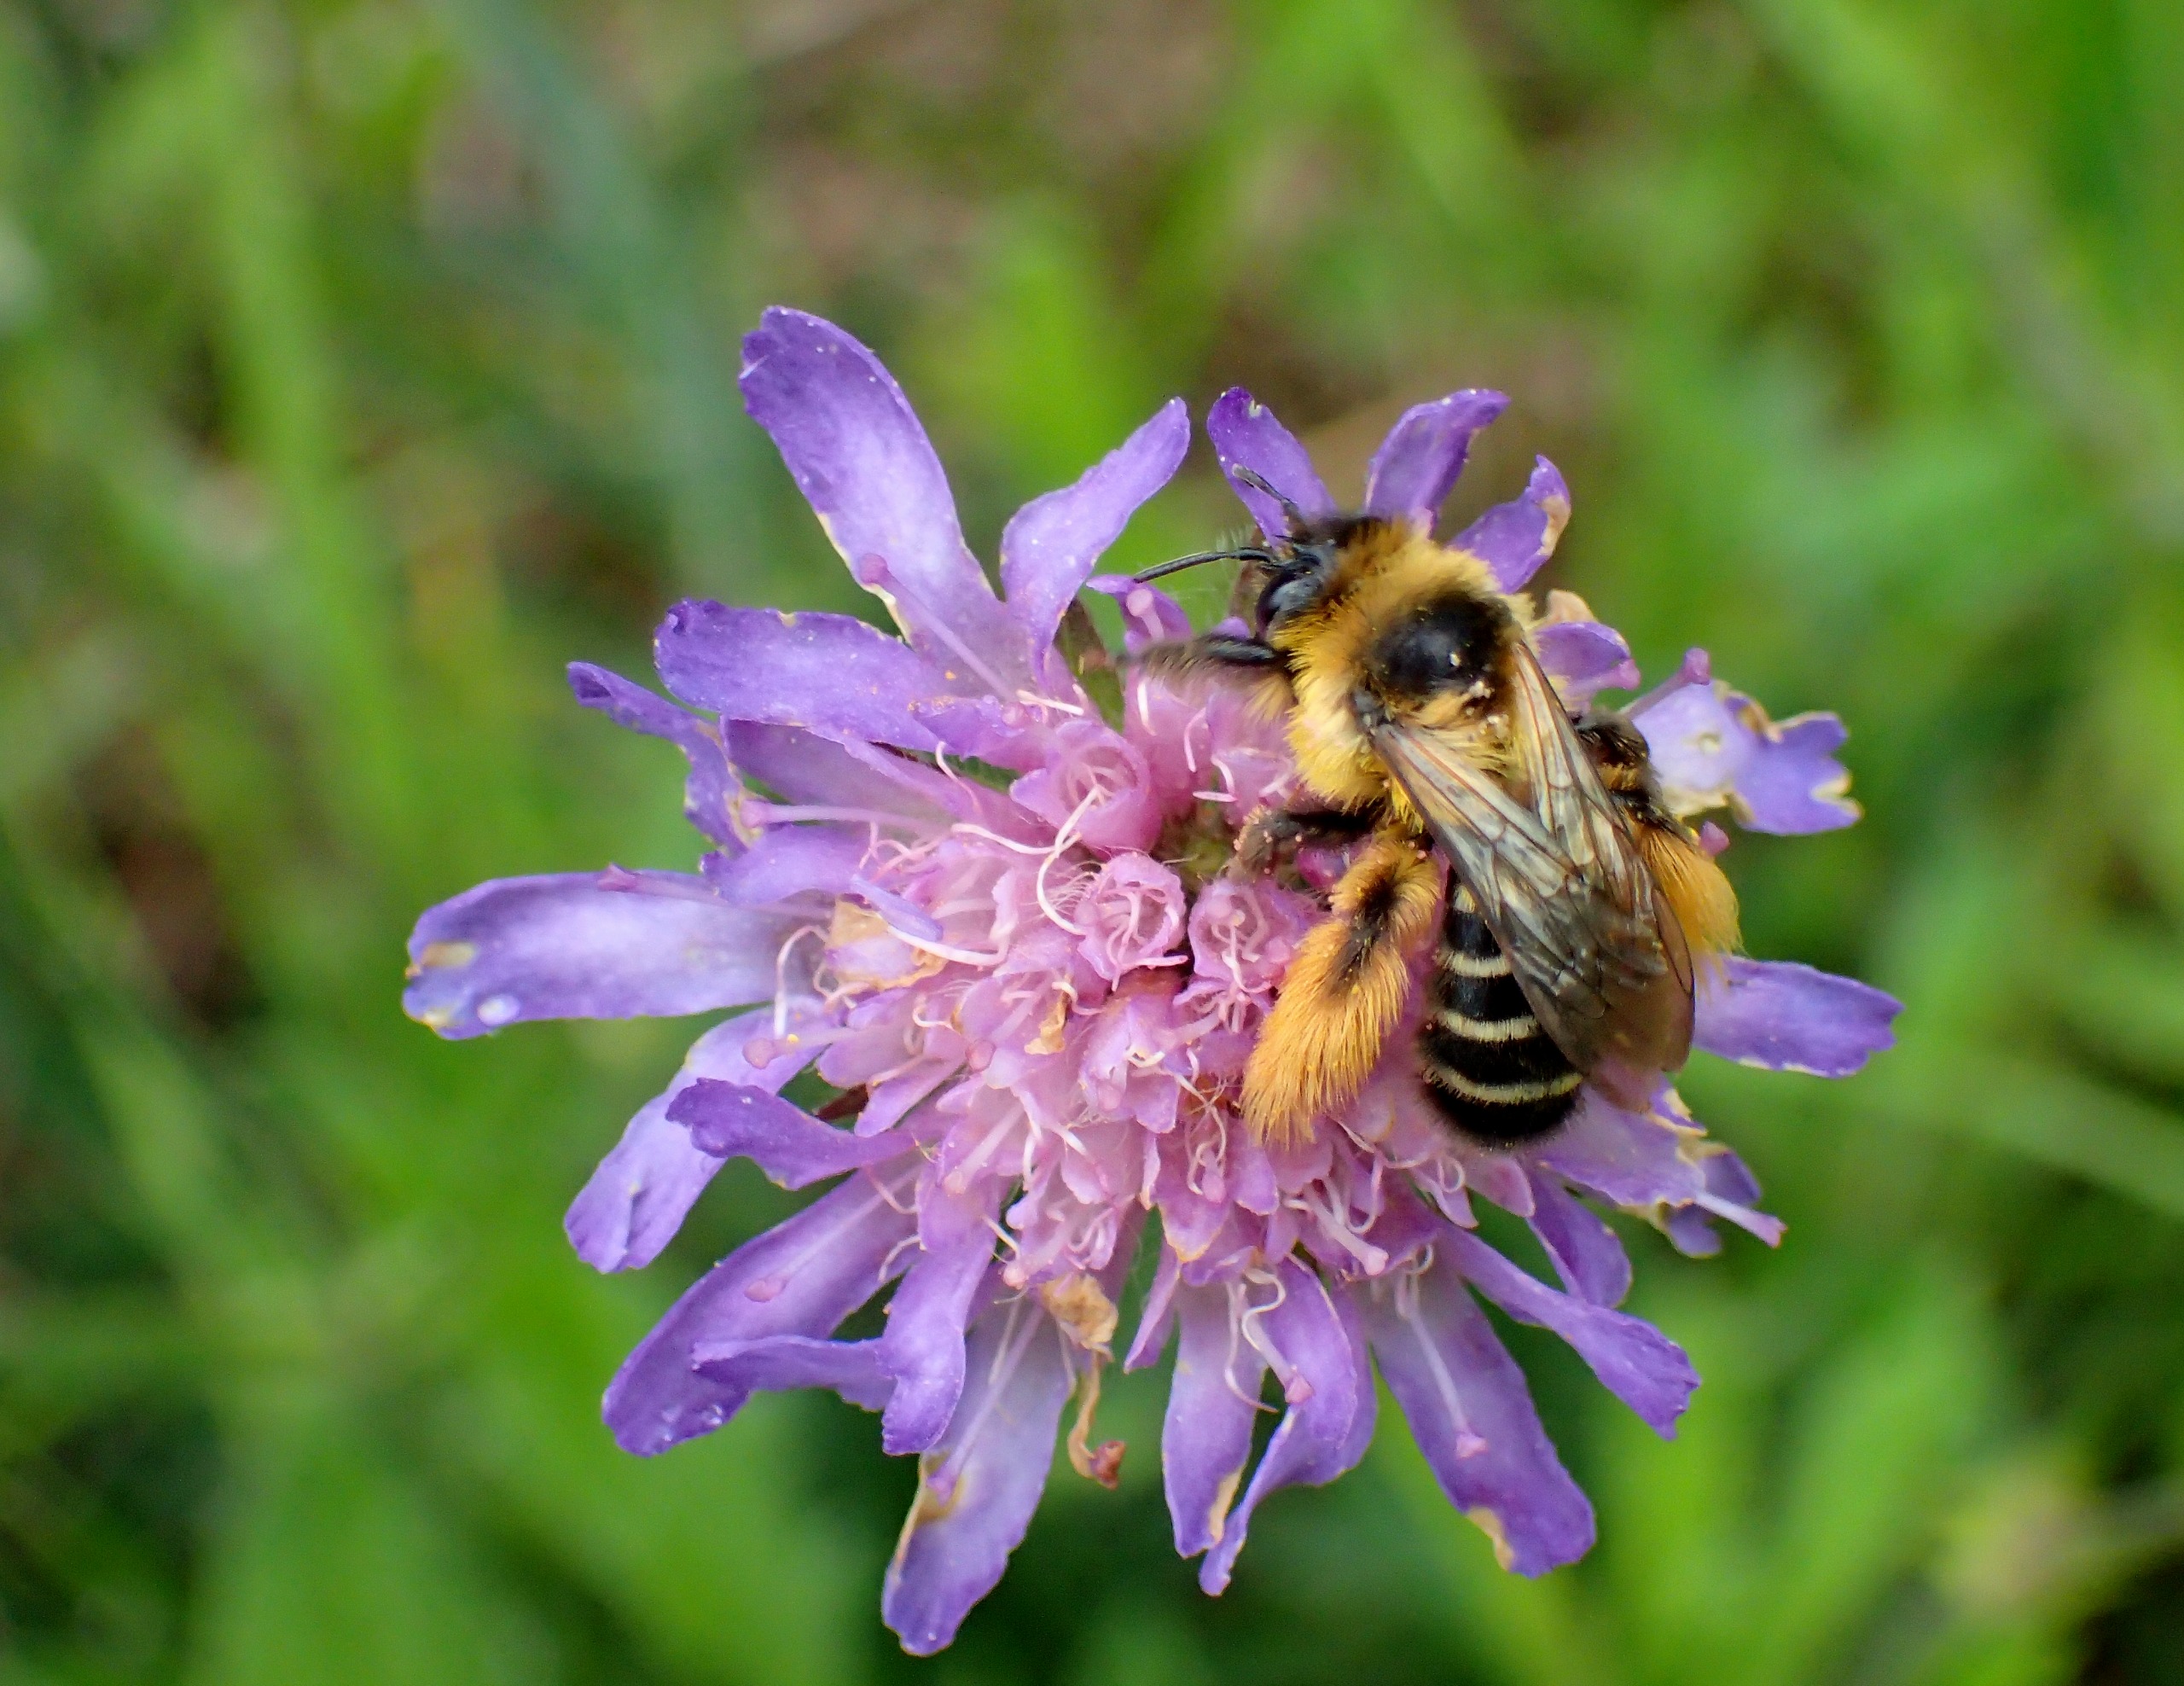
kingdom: Animalia
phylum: Arthropoda
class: Insecta
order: Hymenoptera
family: Melittidae
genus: Dasypoda
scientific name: Dasypoda hirtipes
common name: Pragtbuksebi
